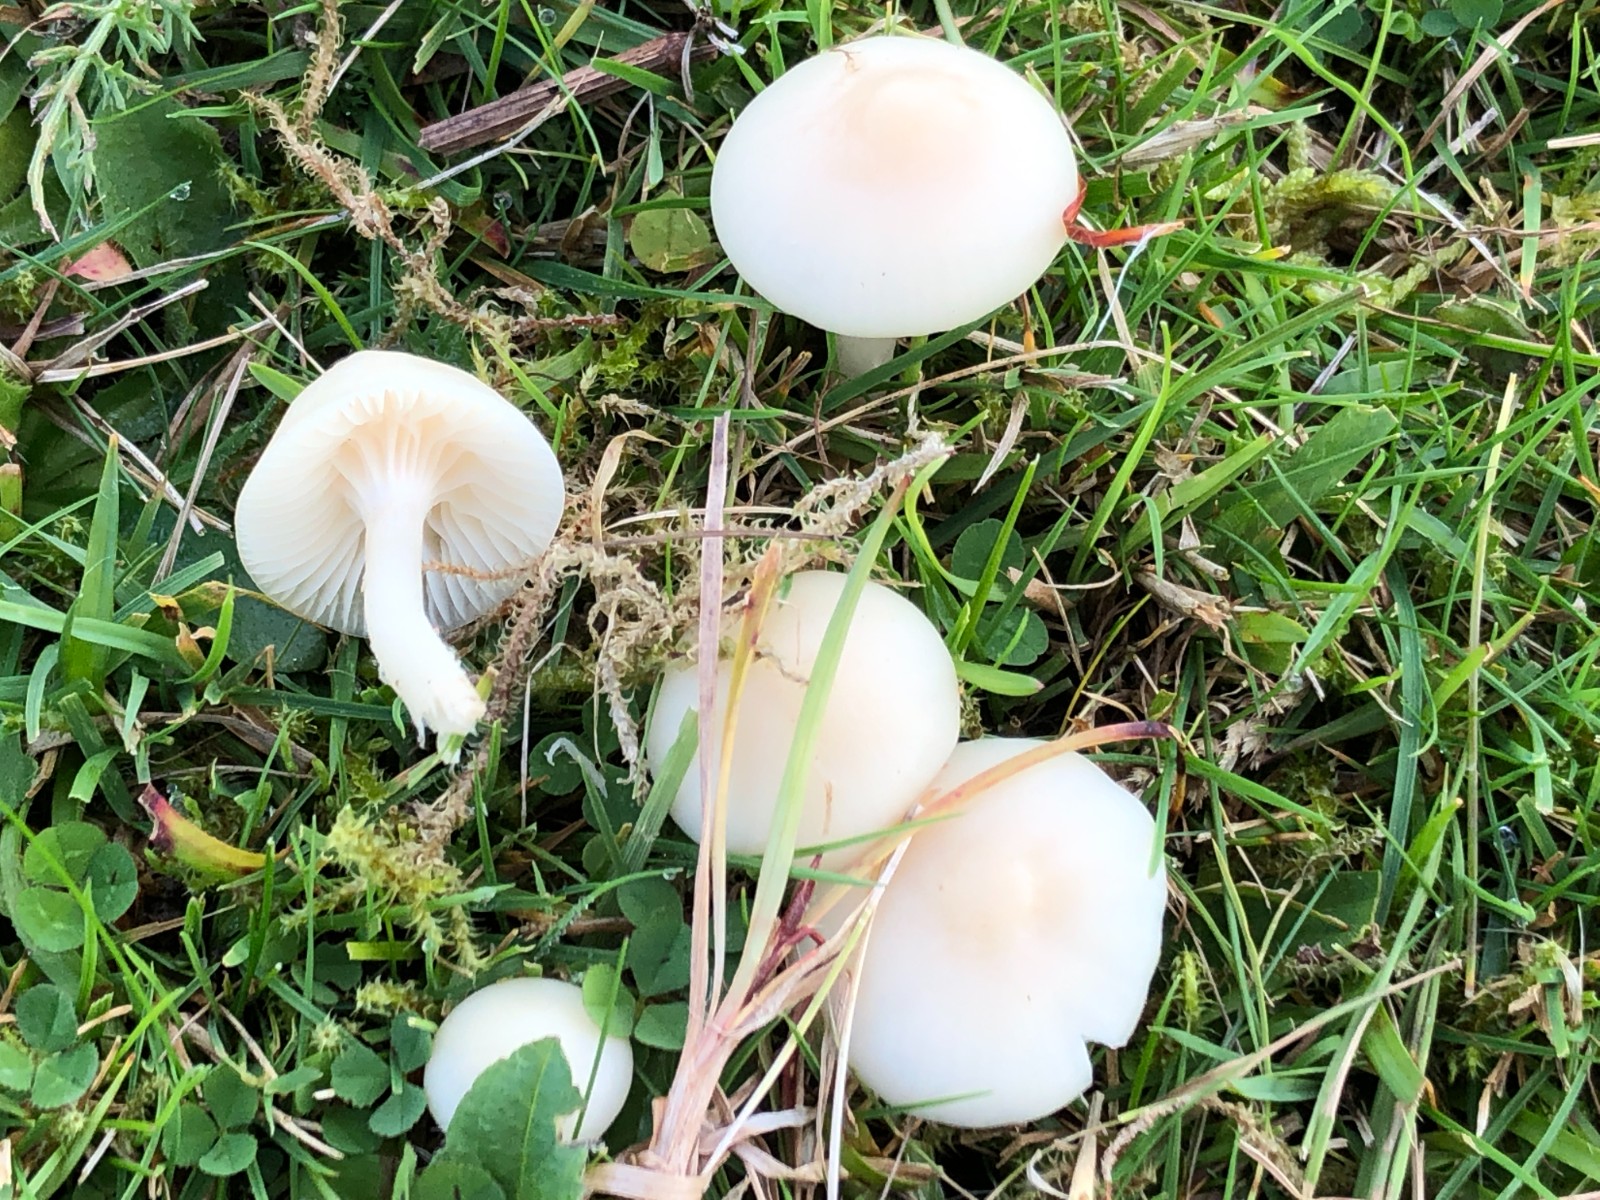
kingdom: Fungi
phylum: Basidiomycota
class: Agaricomycetes
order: Agaricales
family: Hygrophoraceae
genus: Cuphophyllus
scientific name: Cuphophyllus virgineus
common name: snehvid vokshat
